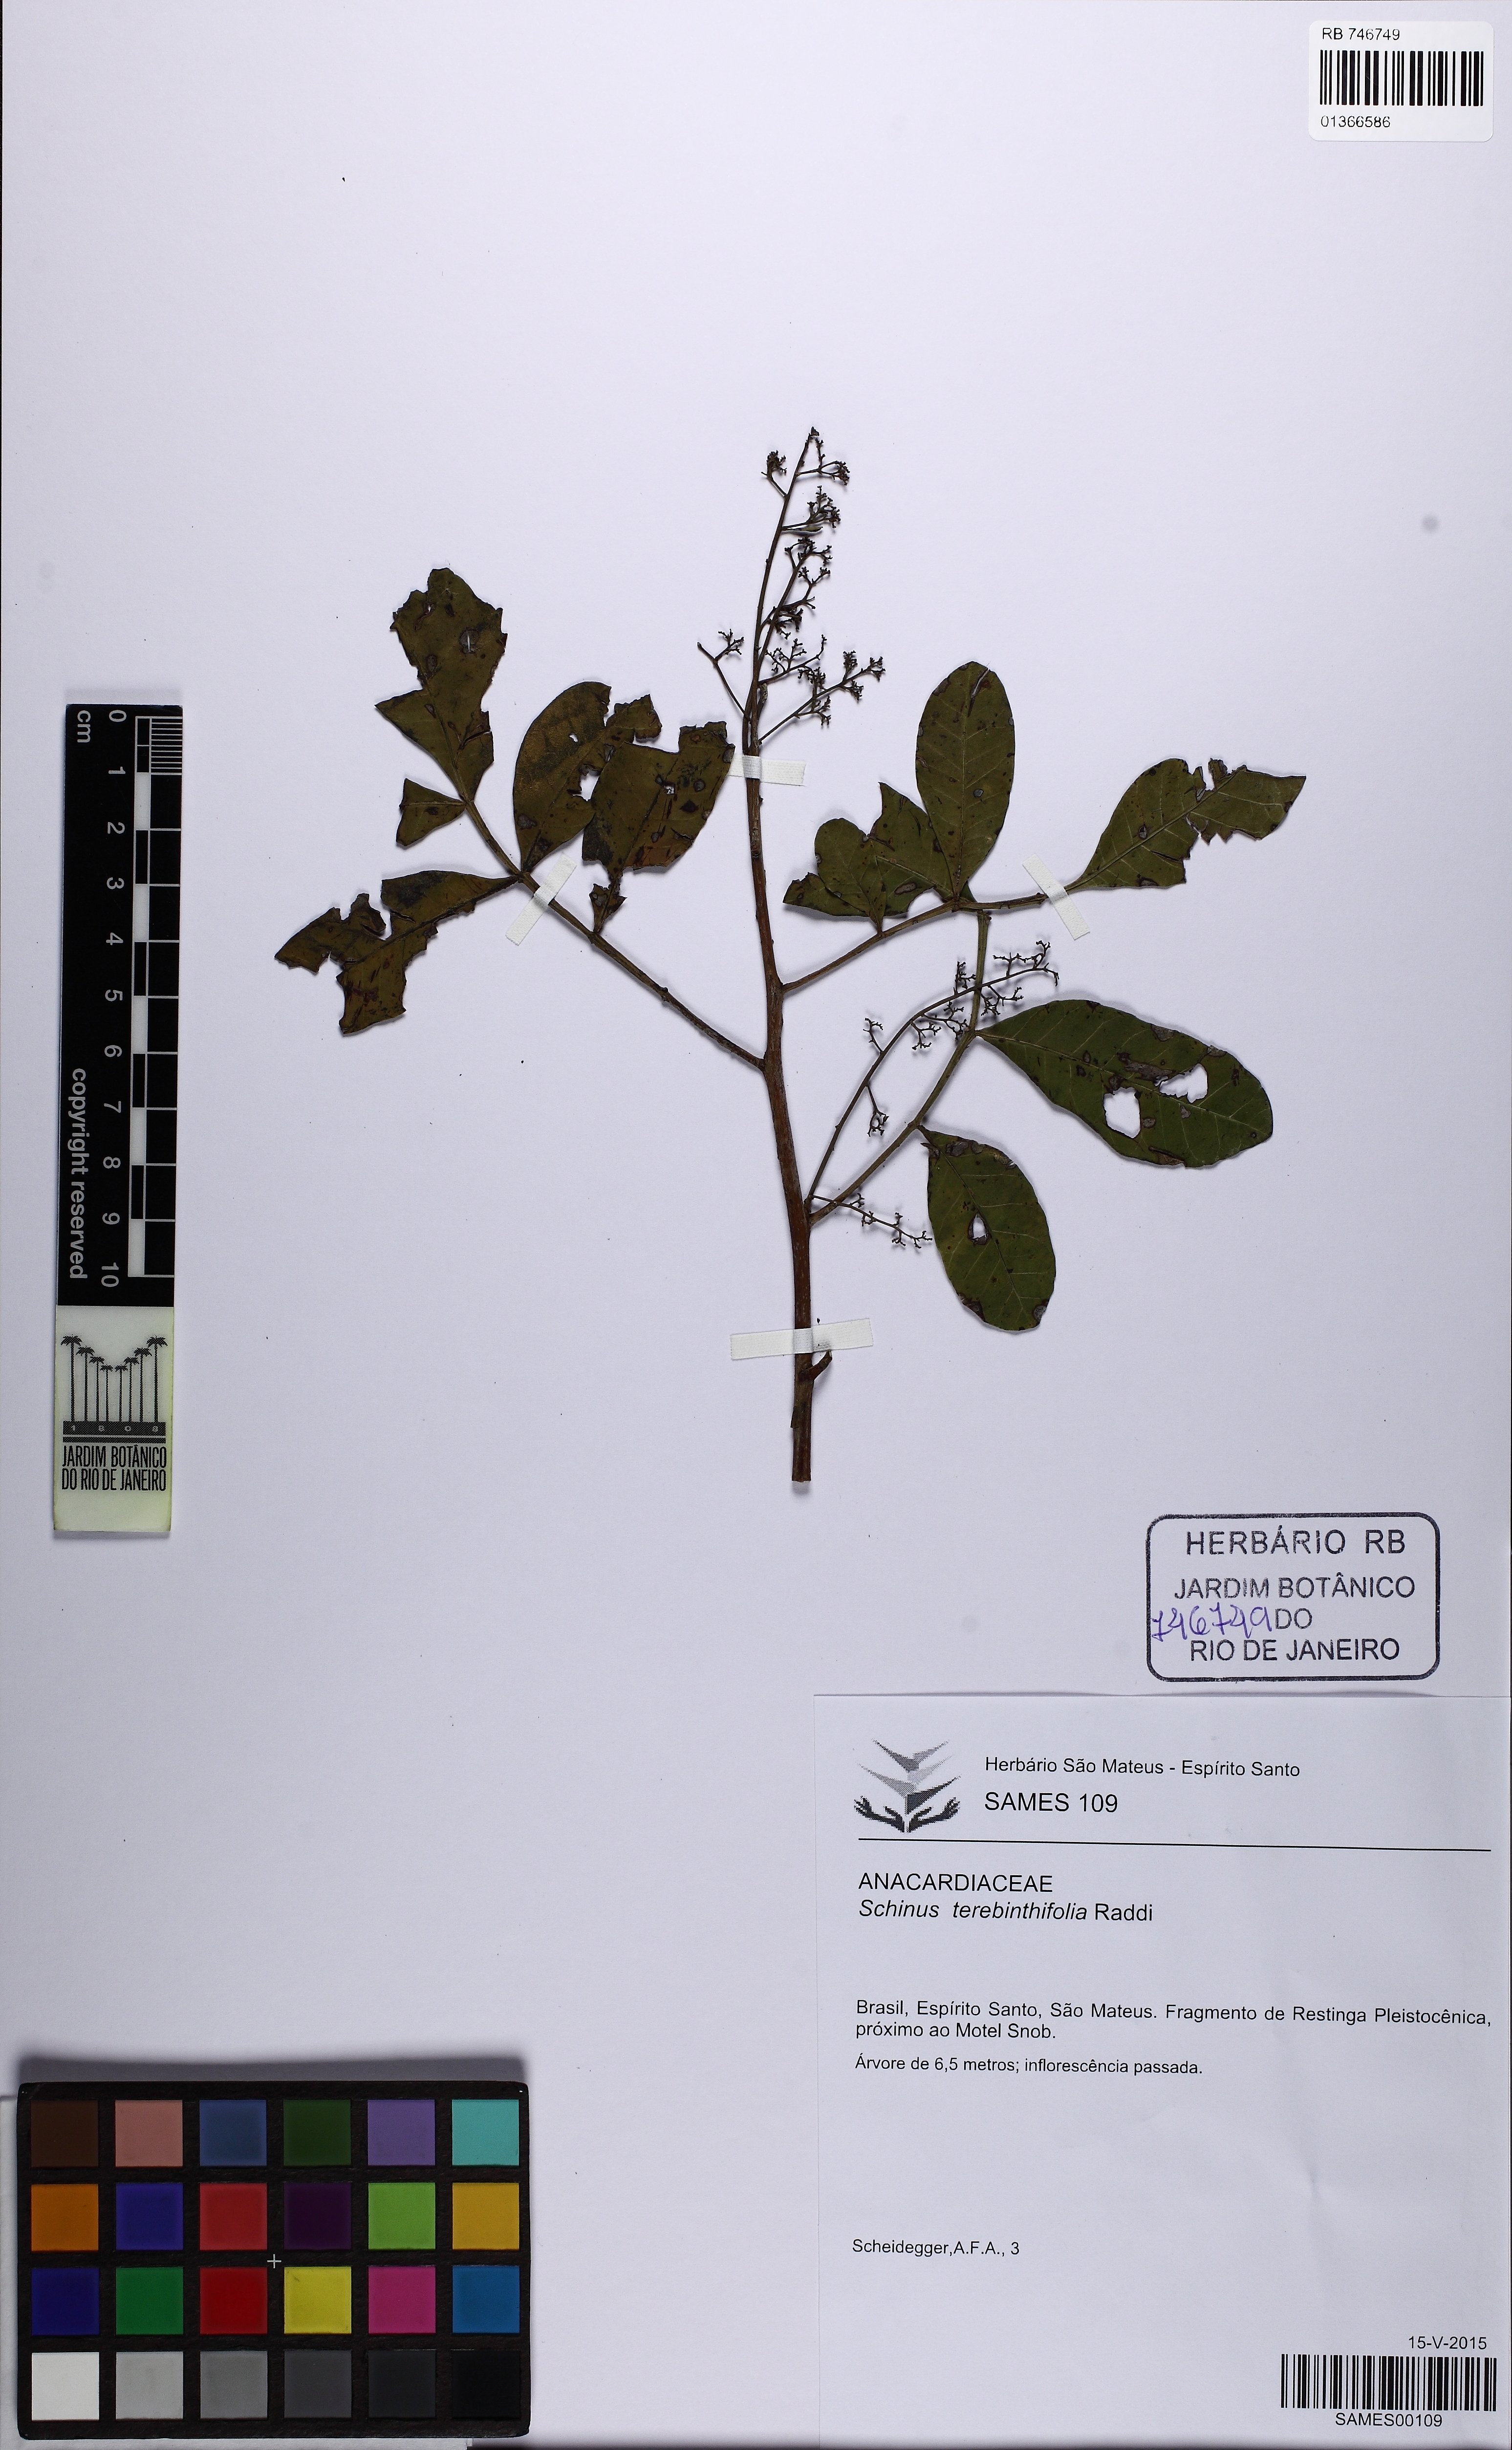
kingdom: Plantae
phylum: Tracheophyta
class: Magnoliopsida
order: Sapindales
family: Anacardiaceae
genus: Schinus
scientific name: Schinus terebinthifolia
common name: Brazilian peppertree
